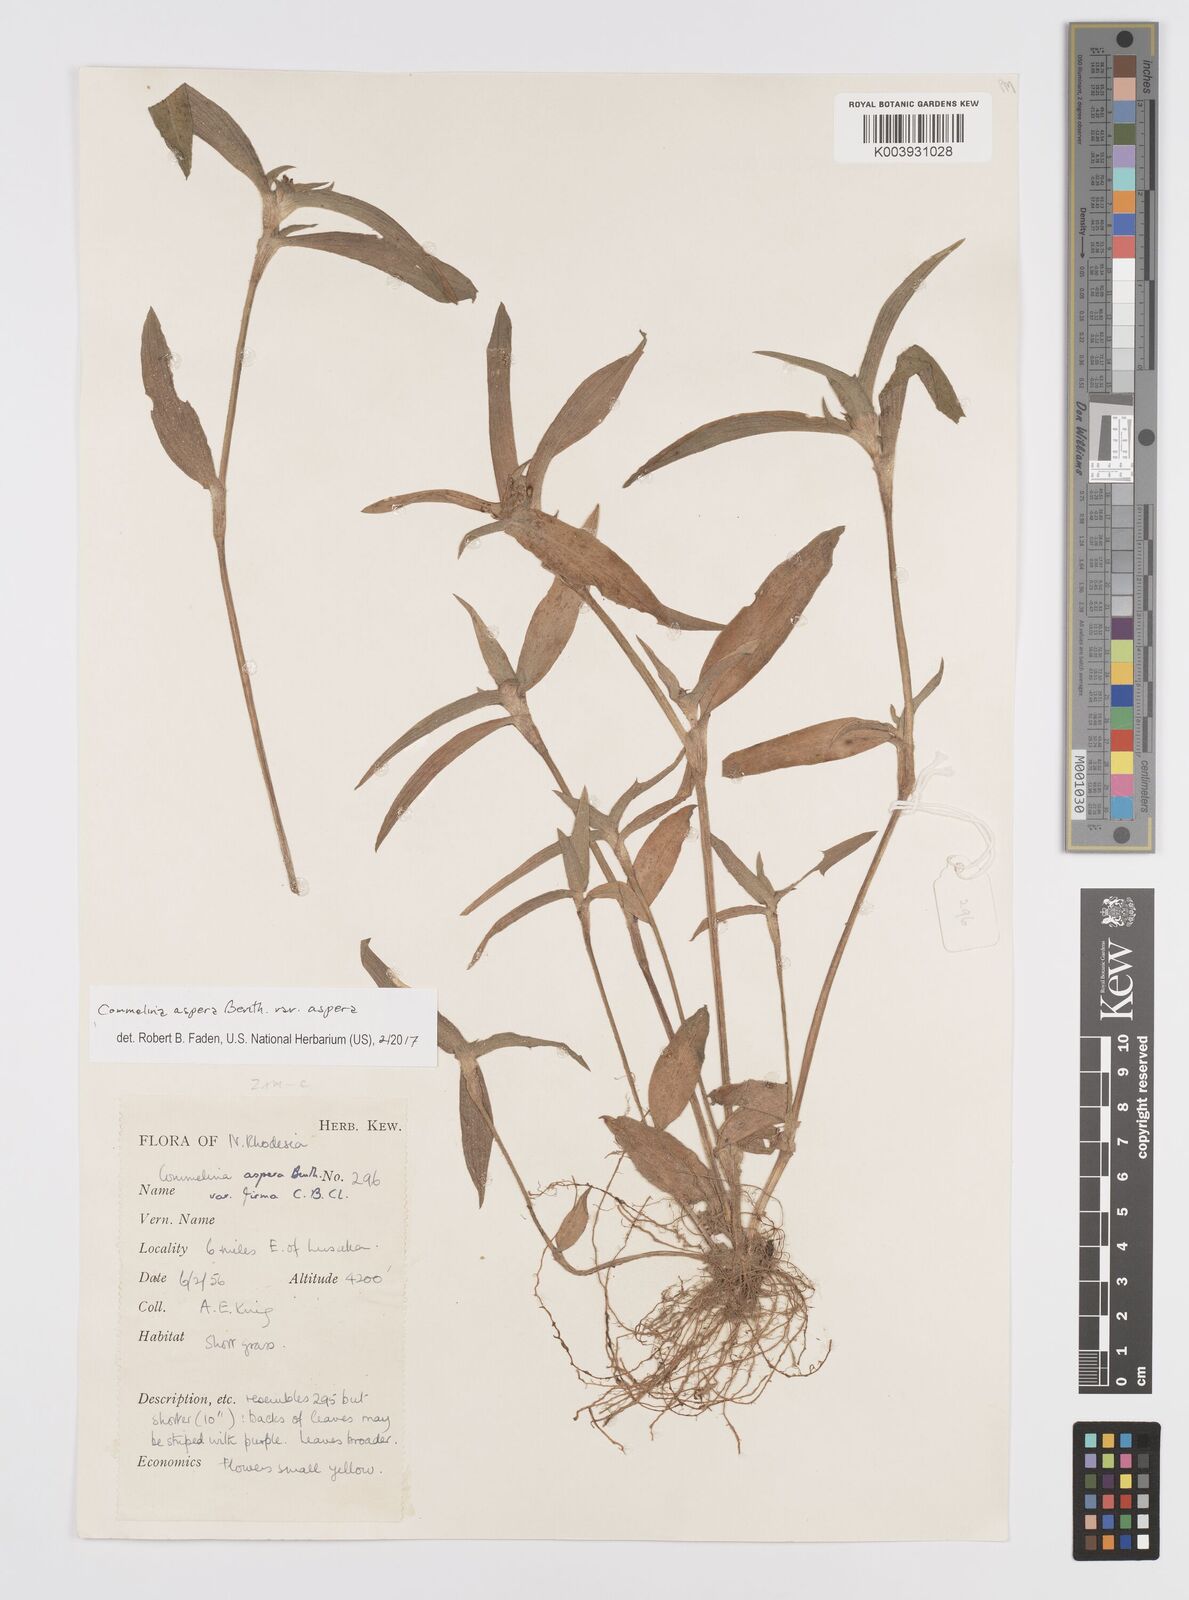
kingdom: Plantae
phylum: Tracheophyta
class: Liliopsida
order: Commelinales
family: Commelinaceae
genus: Commelina
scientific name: Commelina aspera
